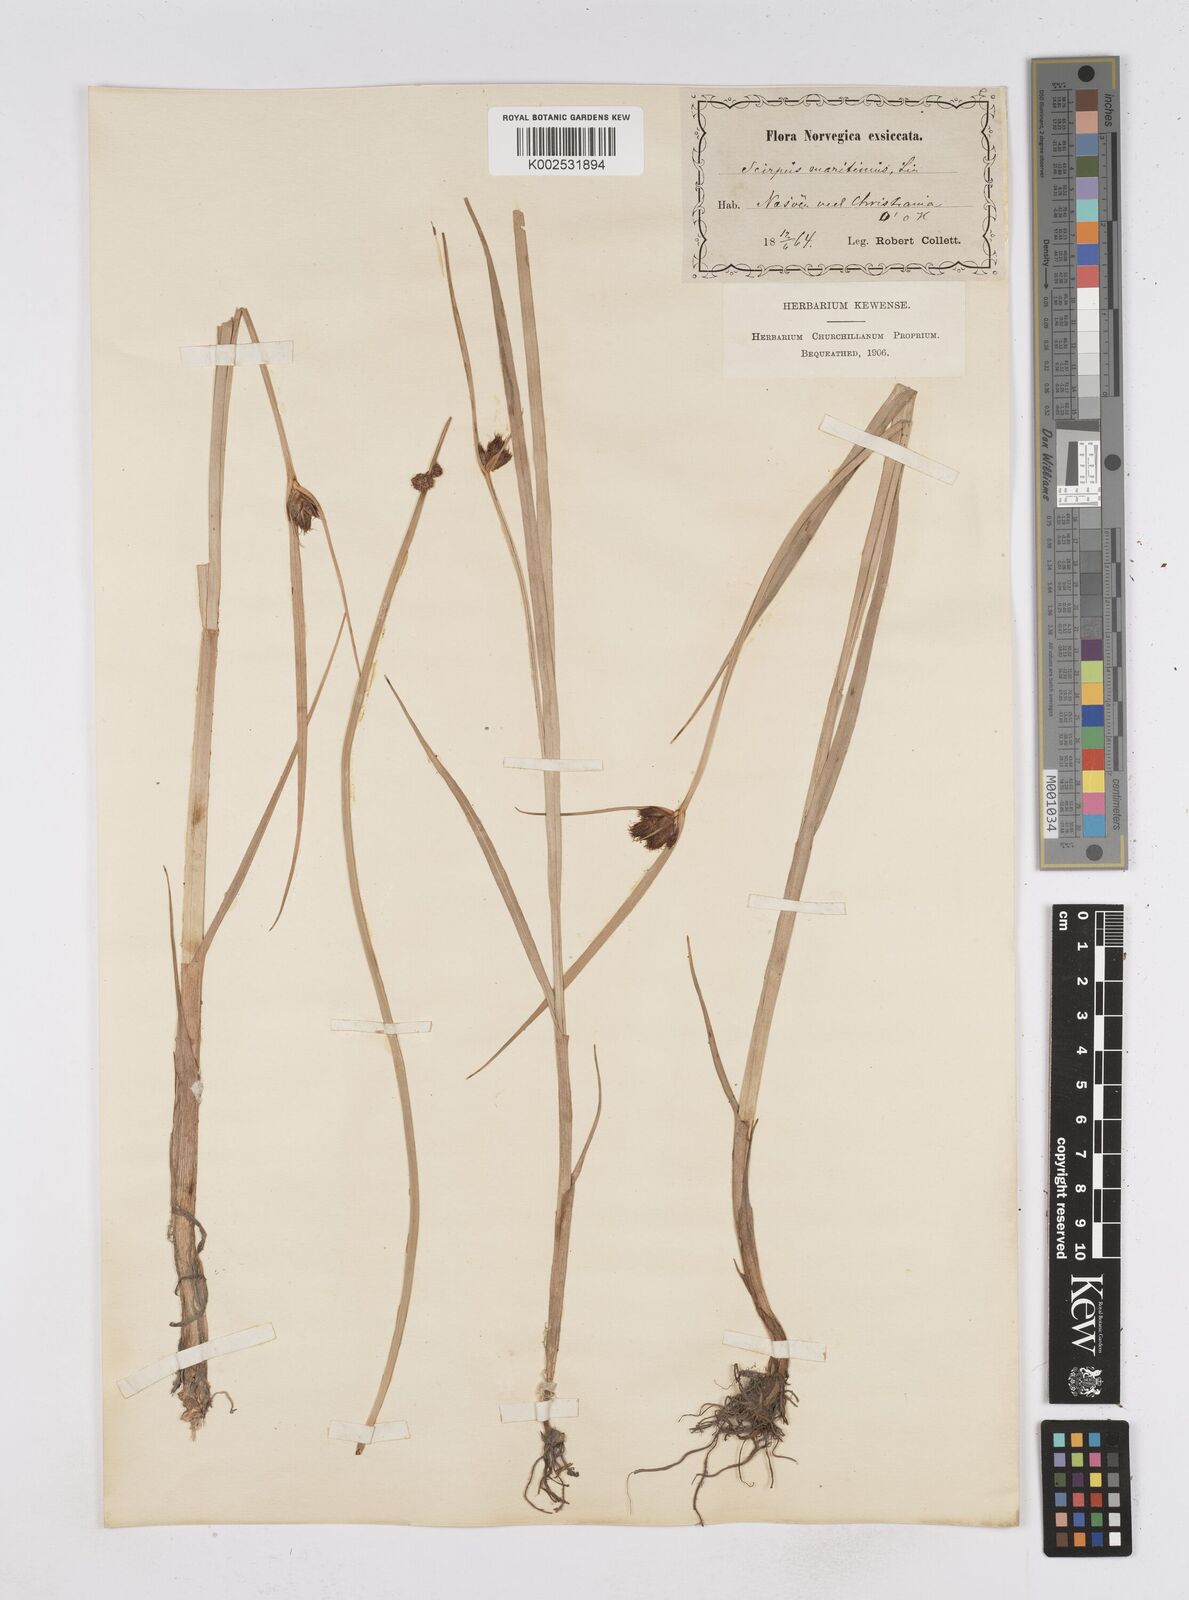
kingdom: Plantae
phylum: Tracheophyta
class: Liliopsida
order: Poales
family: Cyperaceae
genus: Bolboschoenus
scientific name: Bolboschoenus maritimus
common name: Sea club-rush
